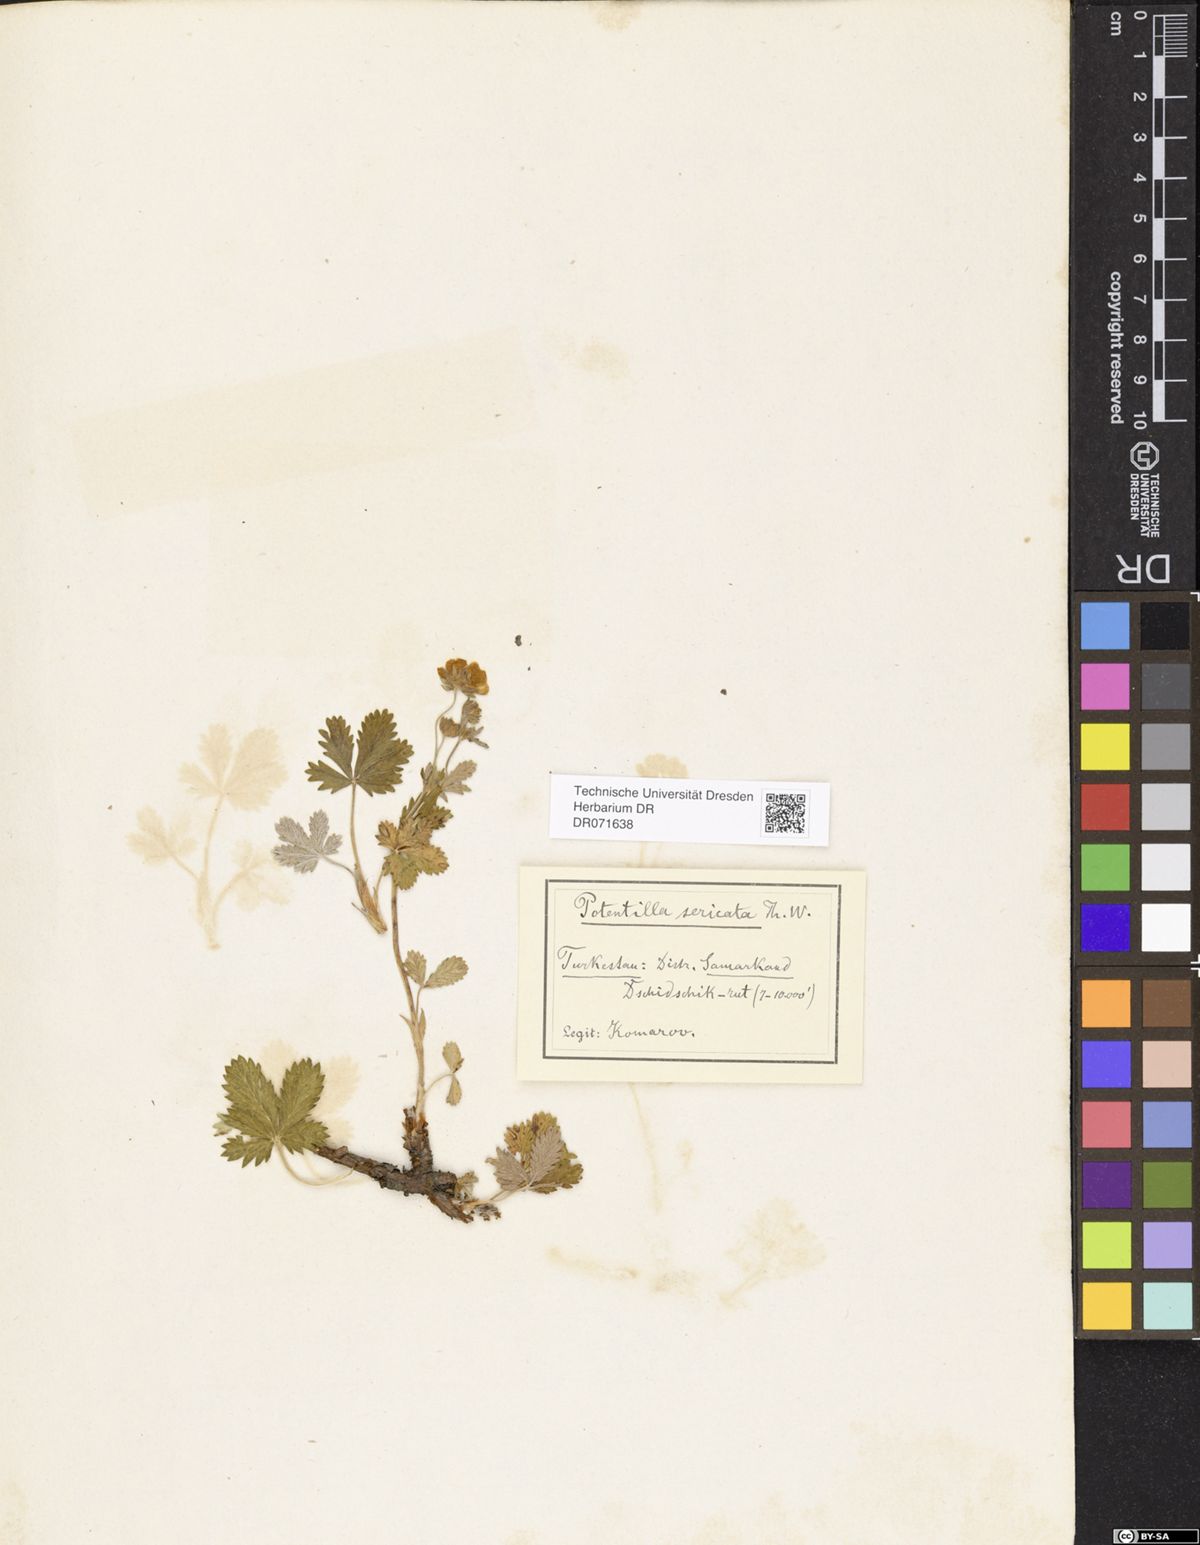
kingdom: Plantae
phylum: Tracheophyta
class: Magnoliopsida
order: Rosales
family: Rosaceae
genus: Potentilla
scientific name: Potentilla algida
